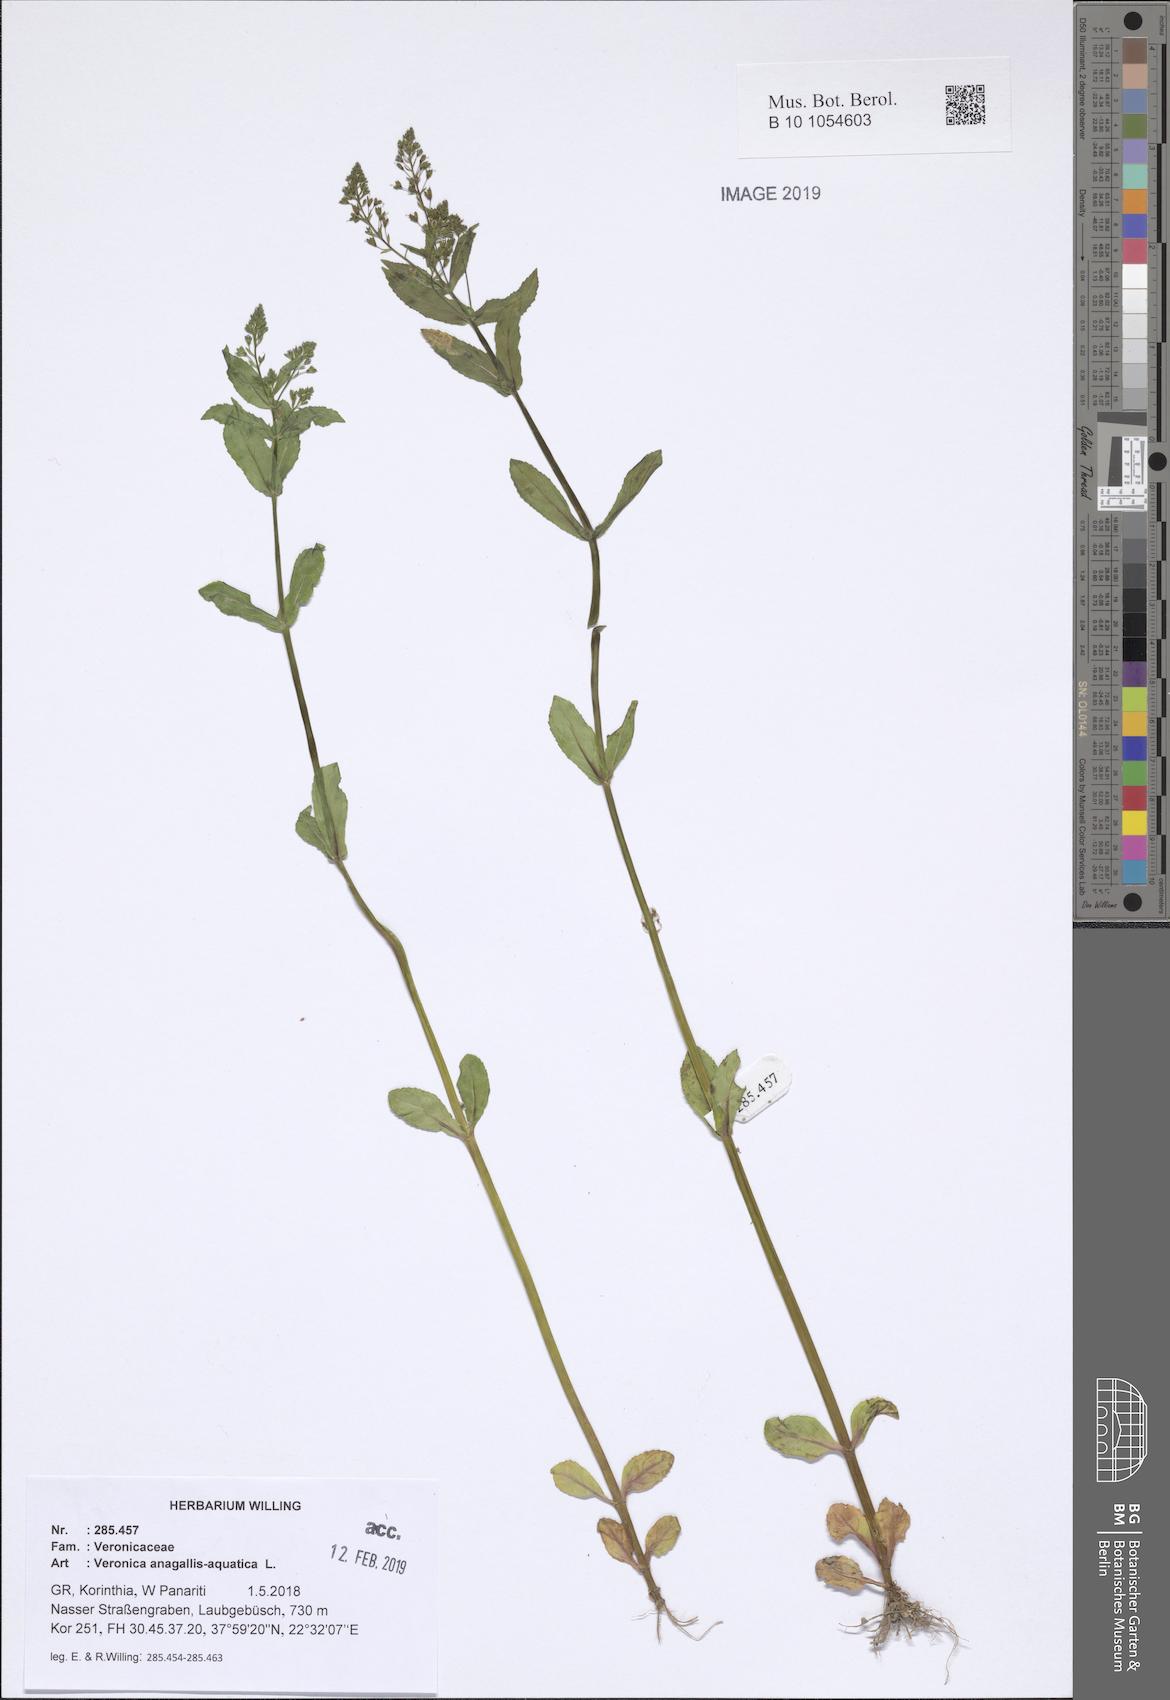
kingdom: Plantae
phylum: Tracheophyta
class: Magnoliopsida
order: Lamiales
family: Plantaginaceae
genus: Veronica
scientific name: Veronica anagallis-aquatica
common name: Water speedwell
